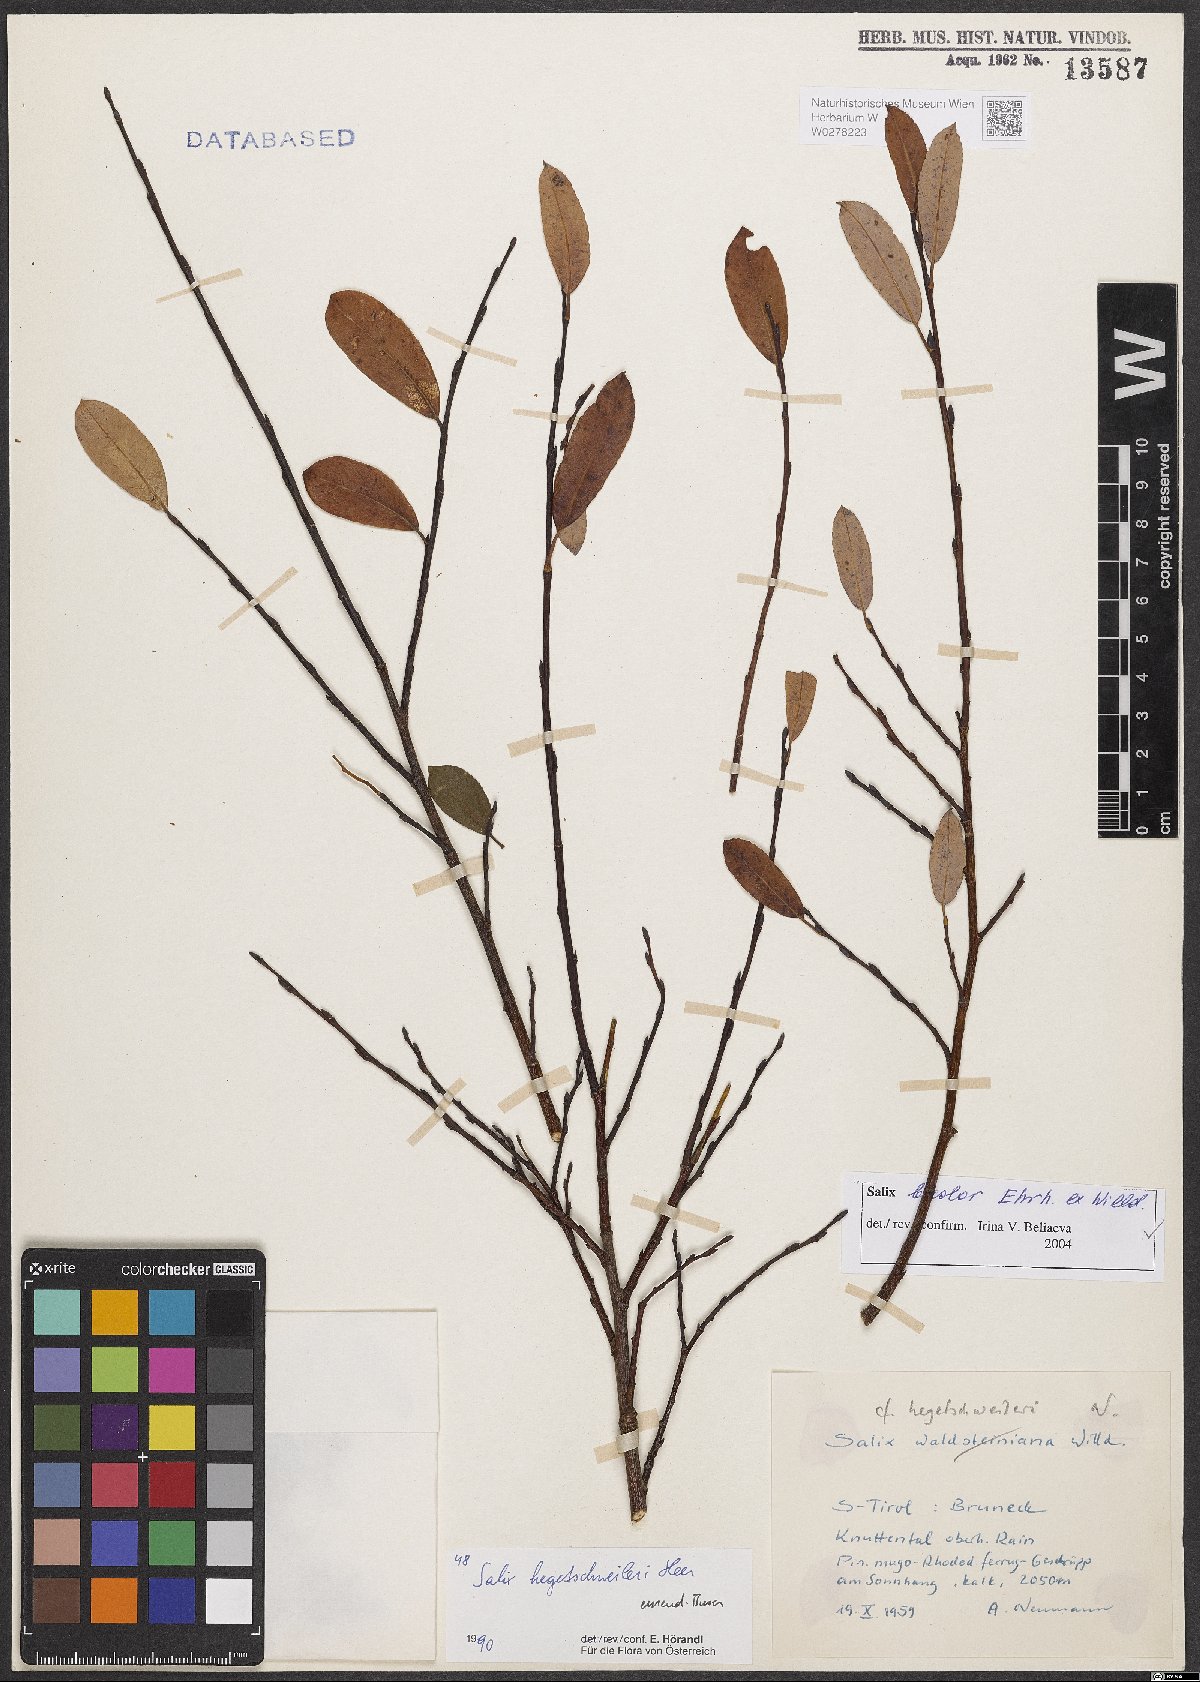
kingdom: Plantae
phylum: Tracheophyta
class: Magnoliopsida
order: Malpighiales
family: Salicaceae
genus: Salix
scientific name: Salix bicolor
